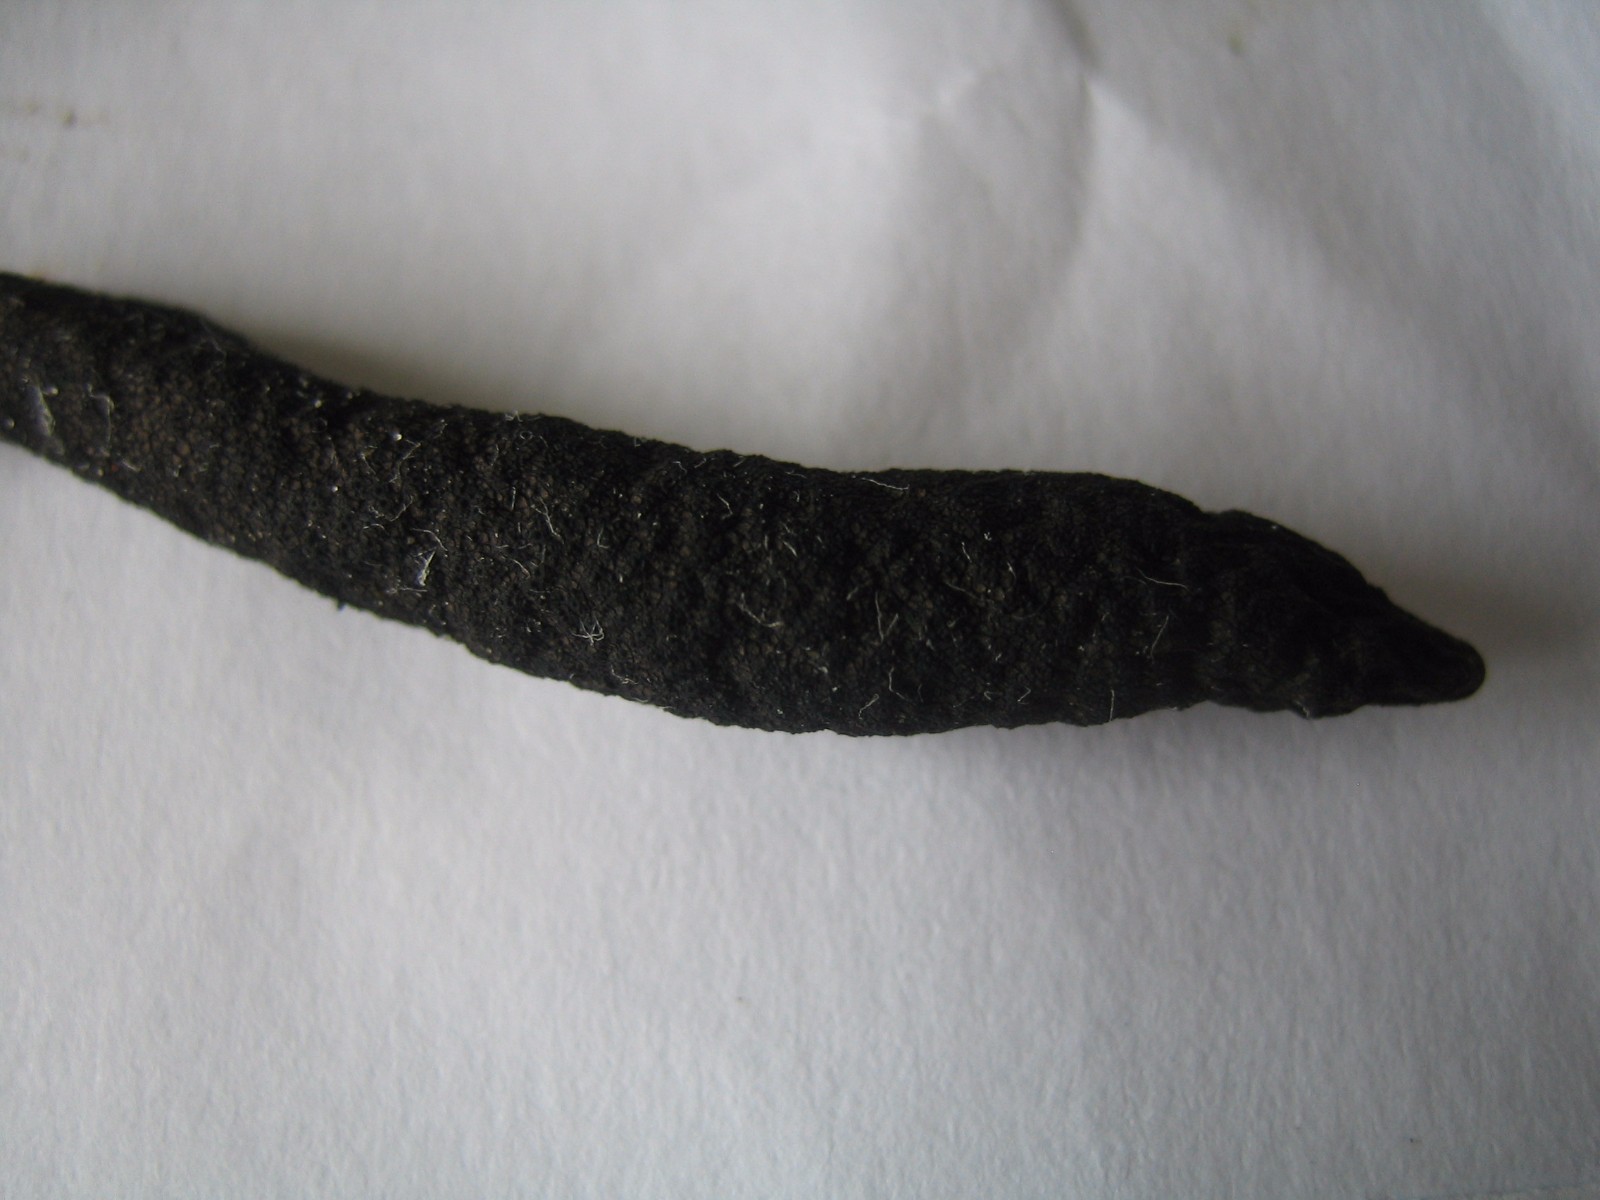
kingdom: Fungi
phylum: Ascomycota
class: Sordariomycetes
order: Xylariales
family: Xylariaceae
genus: Xylaria
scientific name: Xylaria
